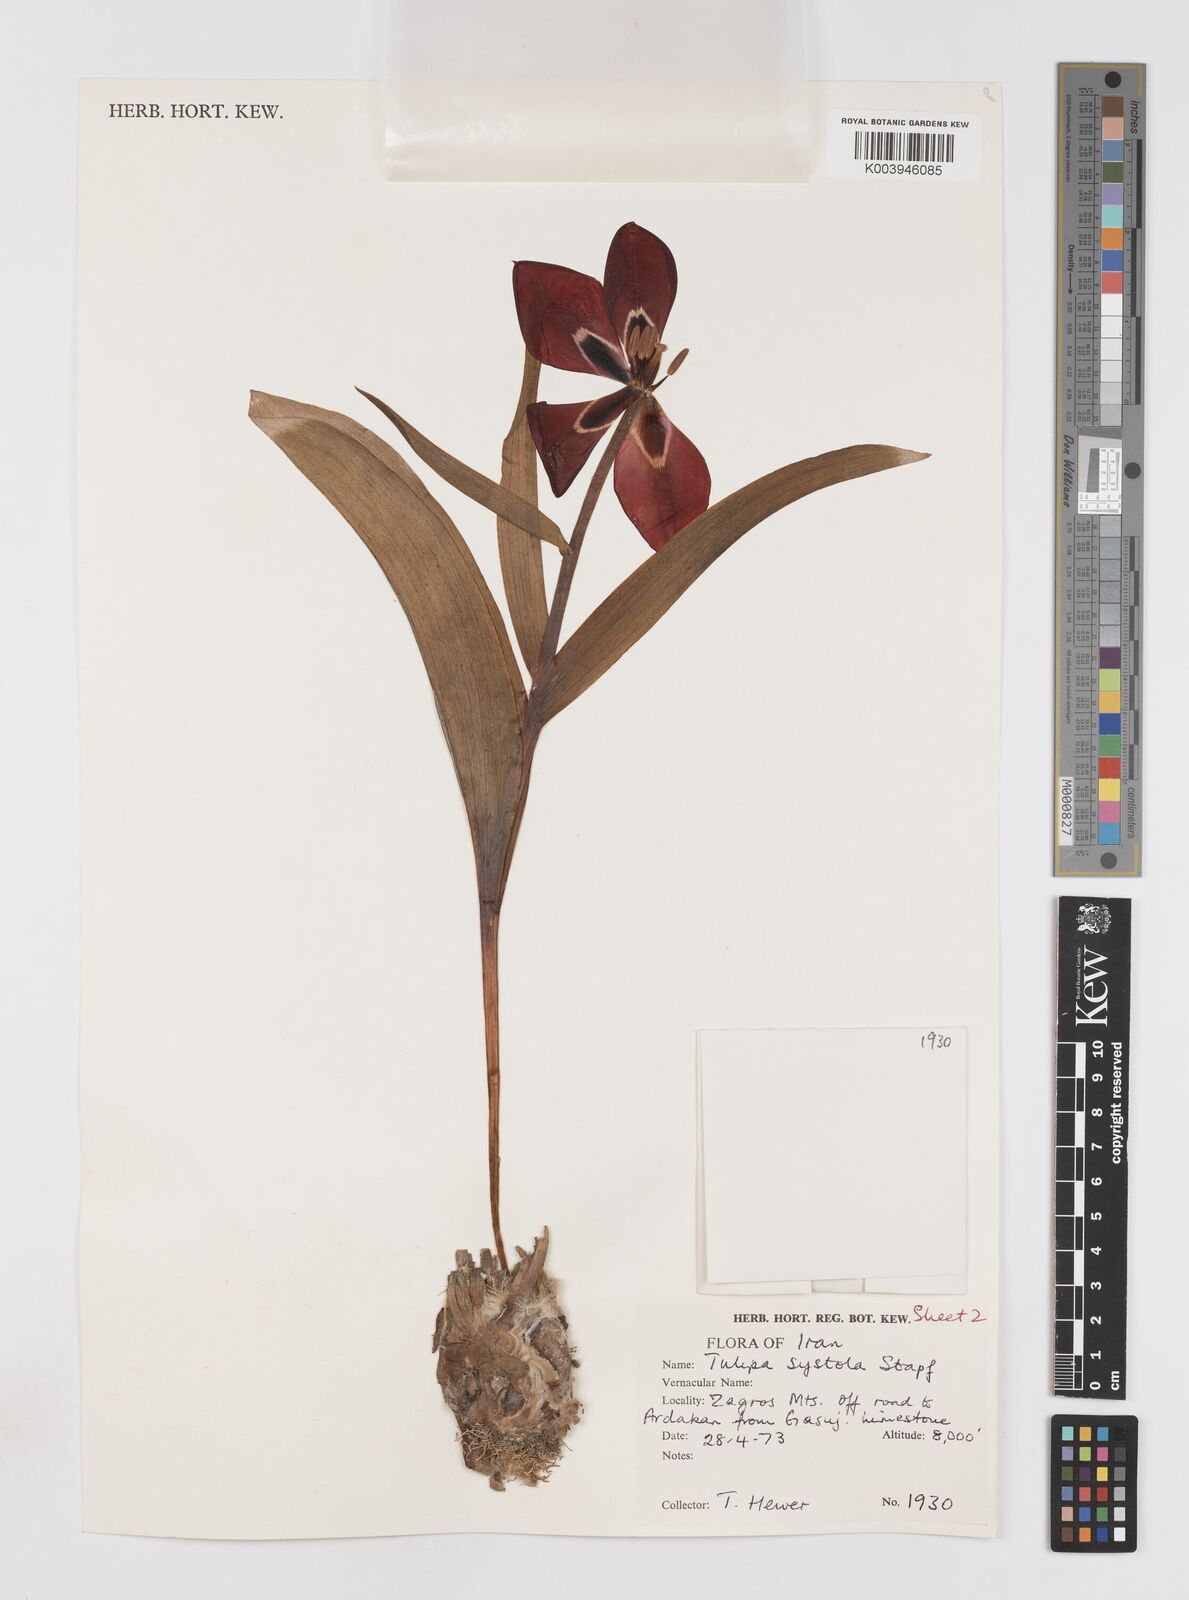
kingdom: Plantae
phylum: Tracheophyta
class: Liliopsida
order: Liliales
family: Liliaceae
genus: Tulipa
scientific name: Tulipa systola
